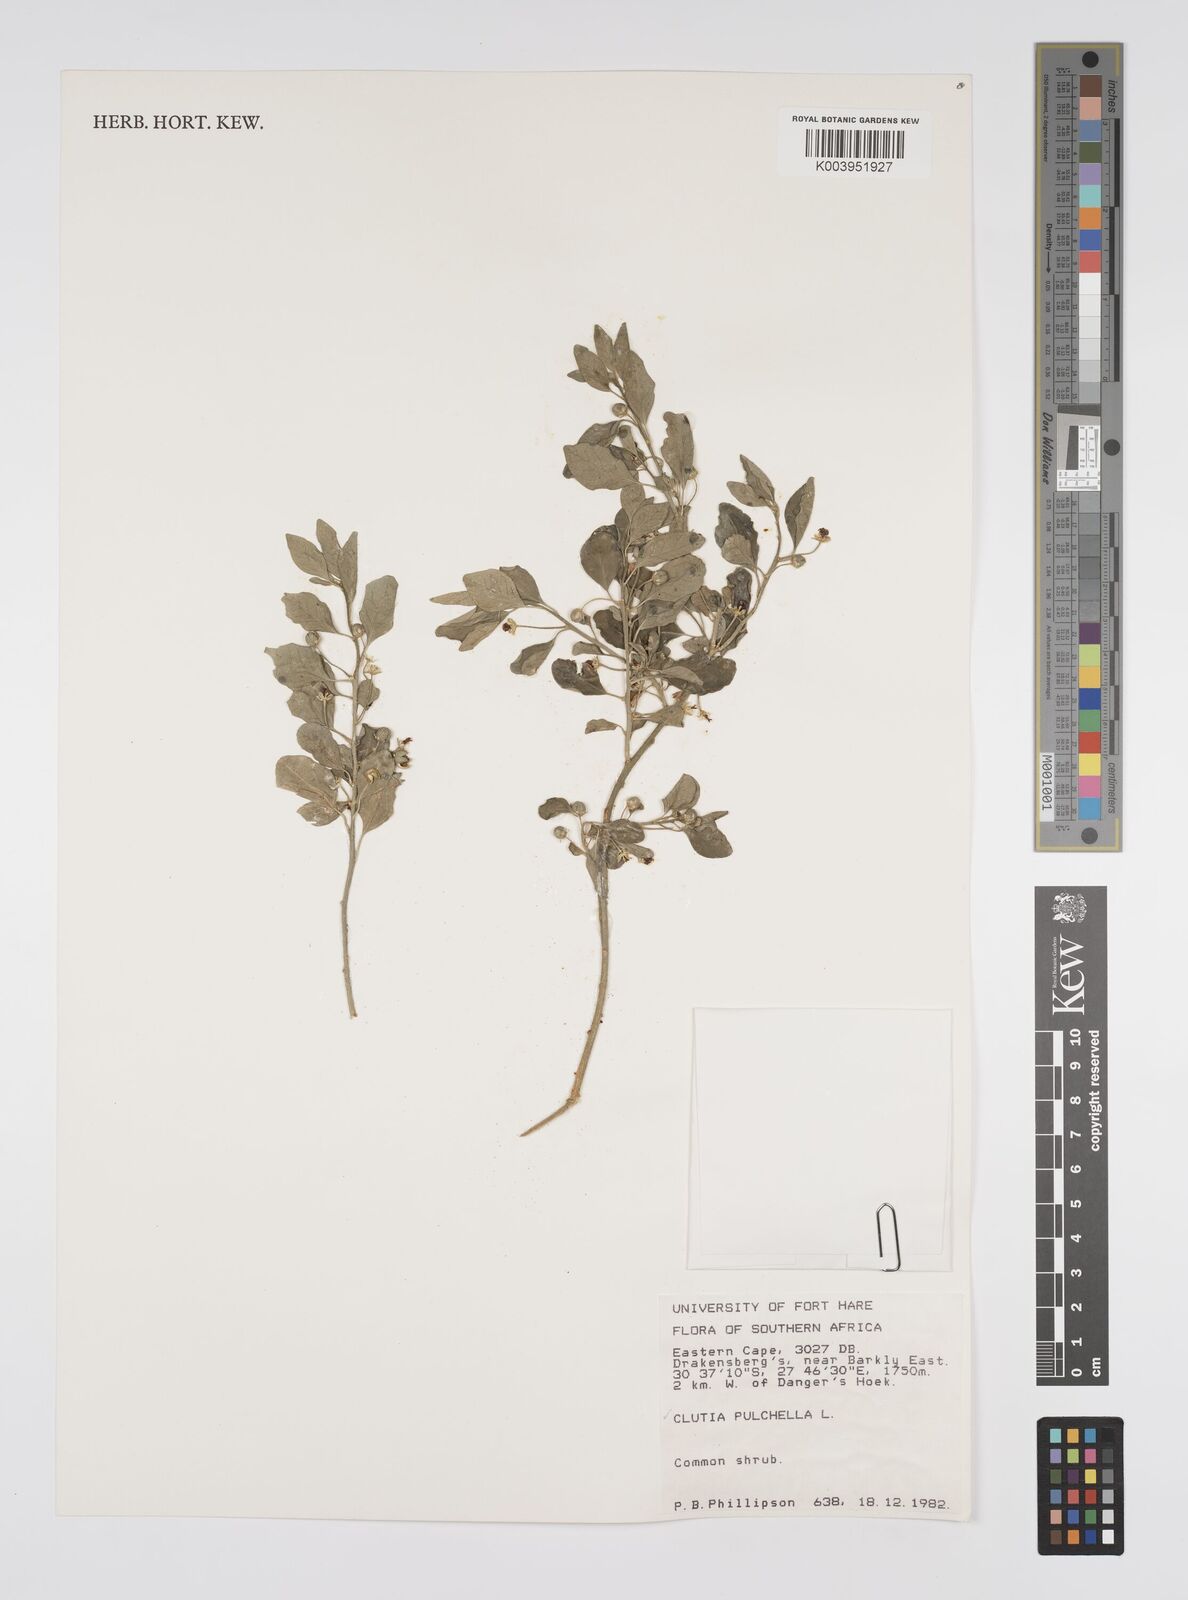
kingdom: Plantae
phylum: Tracheophyta
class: Magnoliopsida
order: Malpighiales
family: Peraceae
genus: Clutia
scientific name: Clutia pulchella
